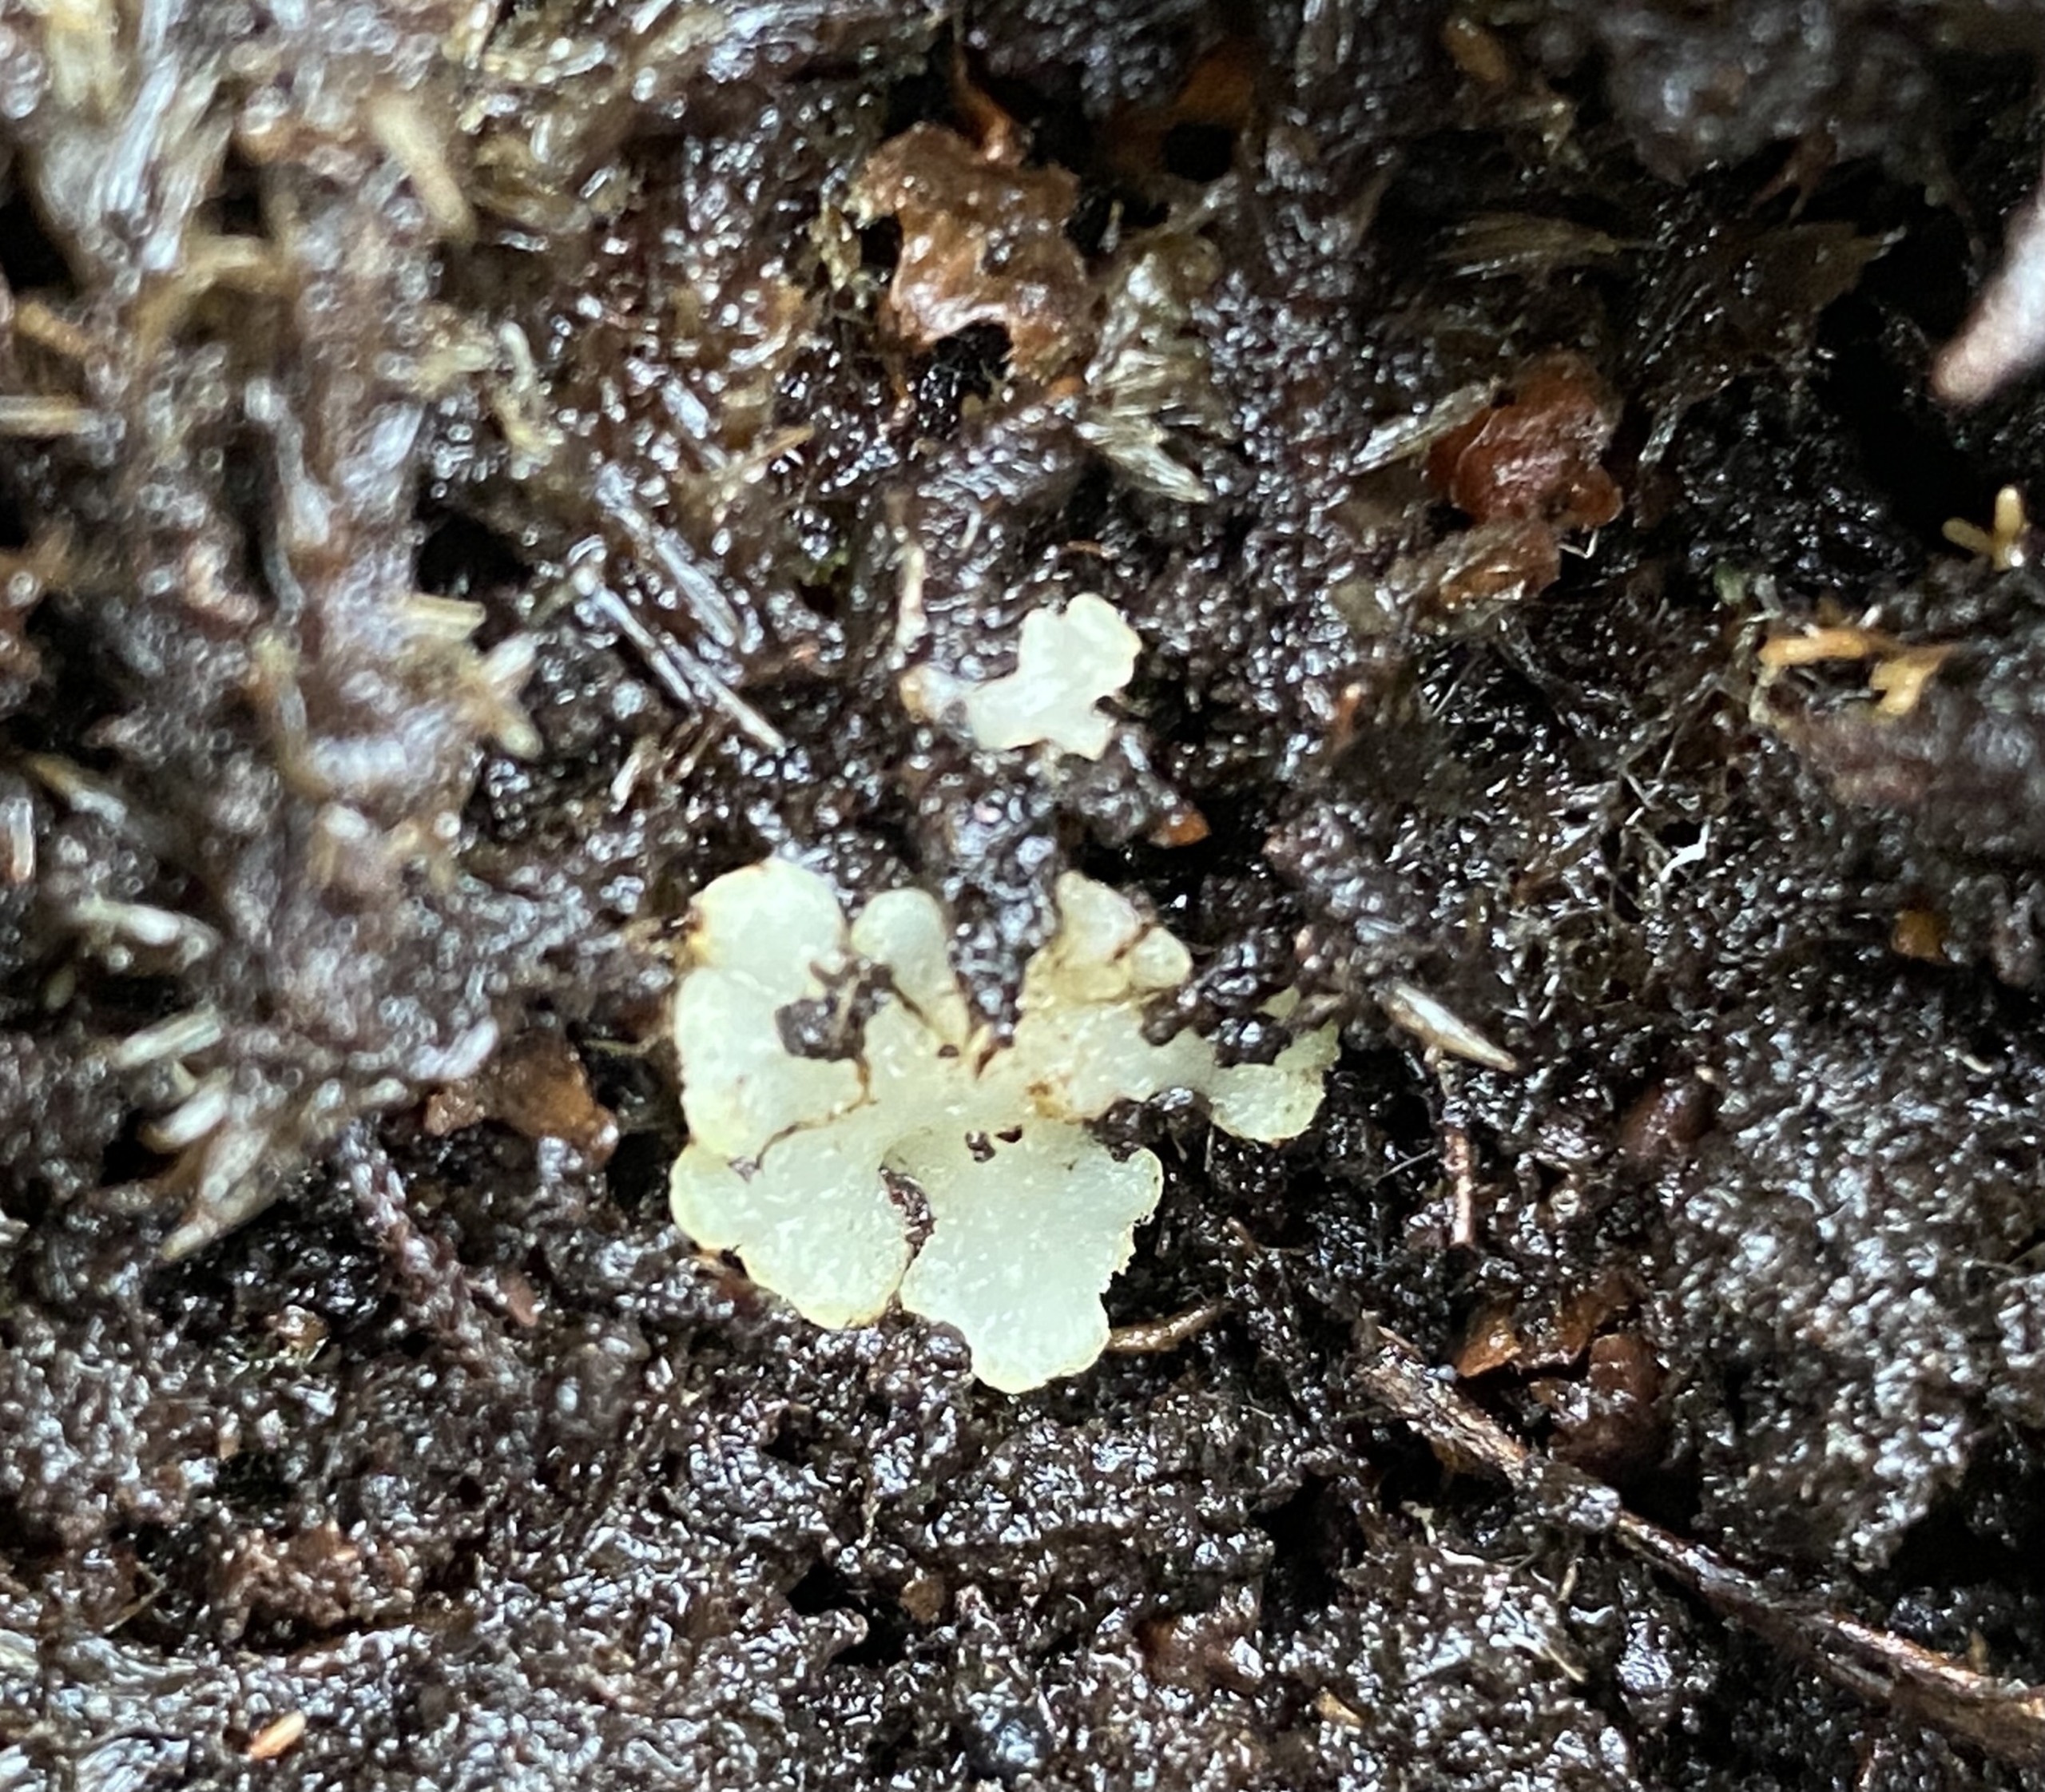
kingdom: Plantae
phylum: Marchantiophyta
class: Jungermanniopsida
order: Metzgeriales
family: Aneuraceae
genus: Aneura
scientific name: Aneura mirabilis
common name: Bleg elvermos
